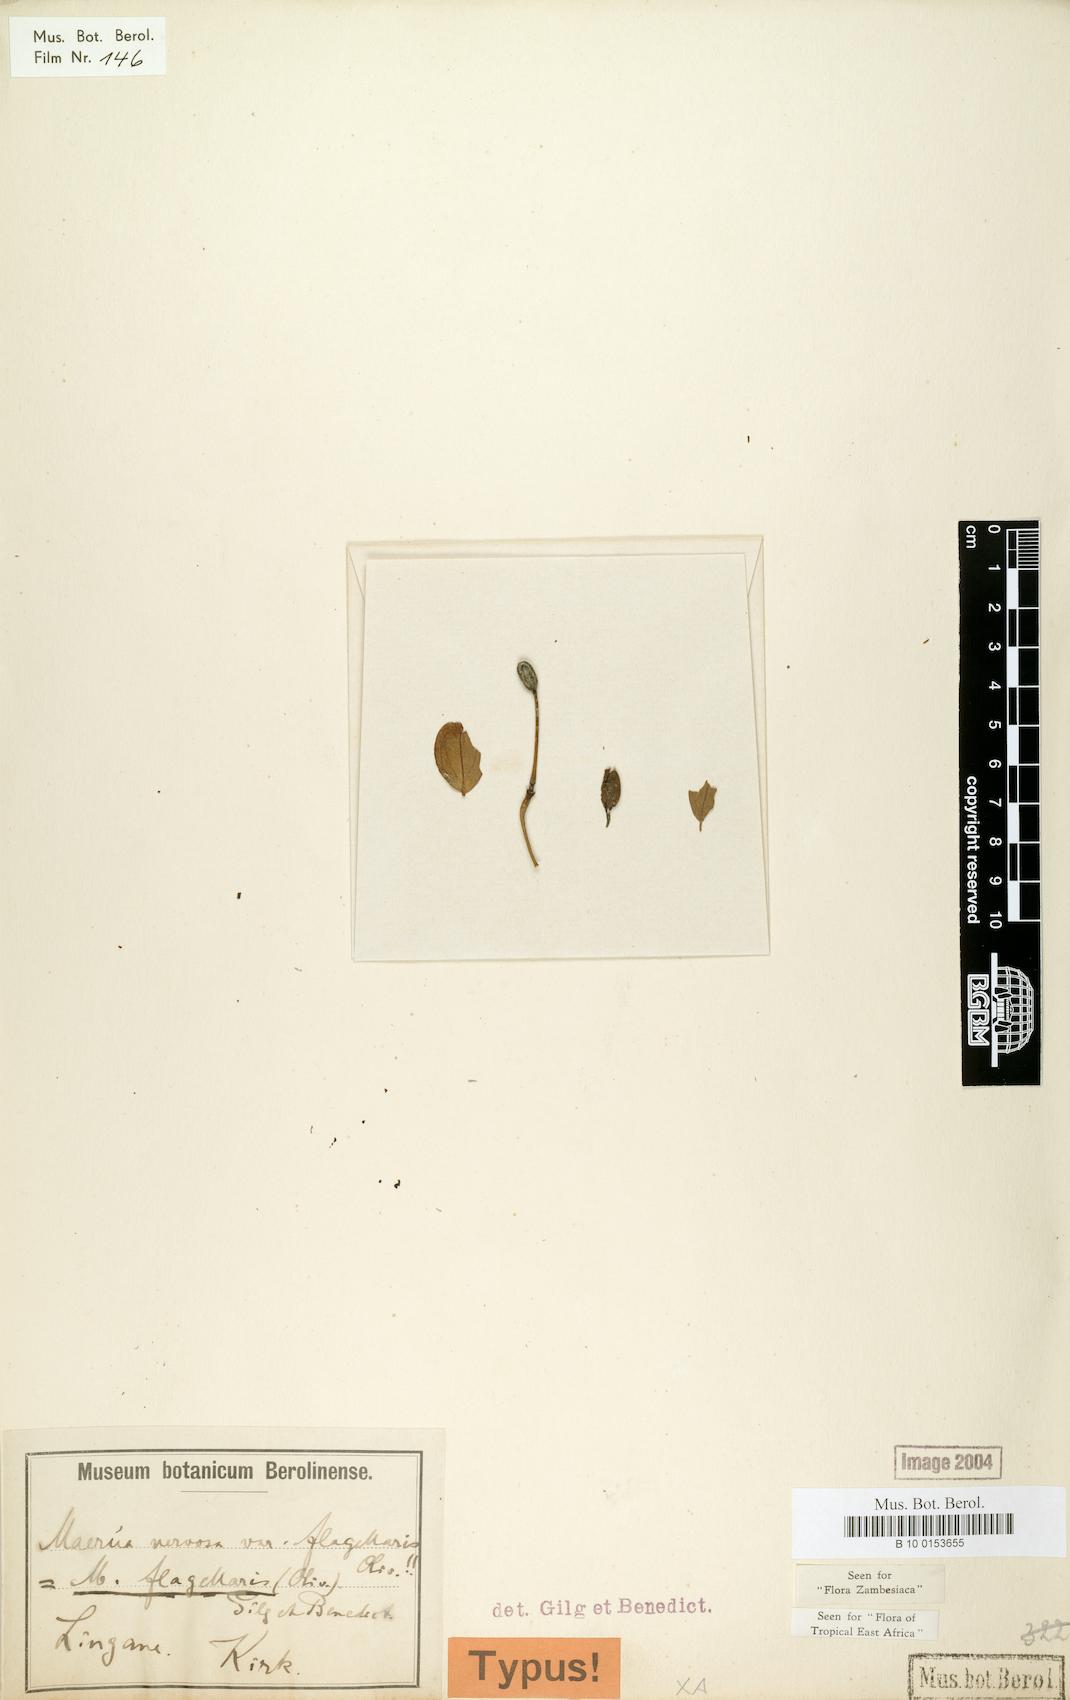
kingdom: Plantae
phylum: Tracheophyta
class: Magnoliopsida
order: Brassicales
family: Capparaceae
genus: Maerua
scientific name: Maerua juncea
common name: Rough-skinned bush cherry
